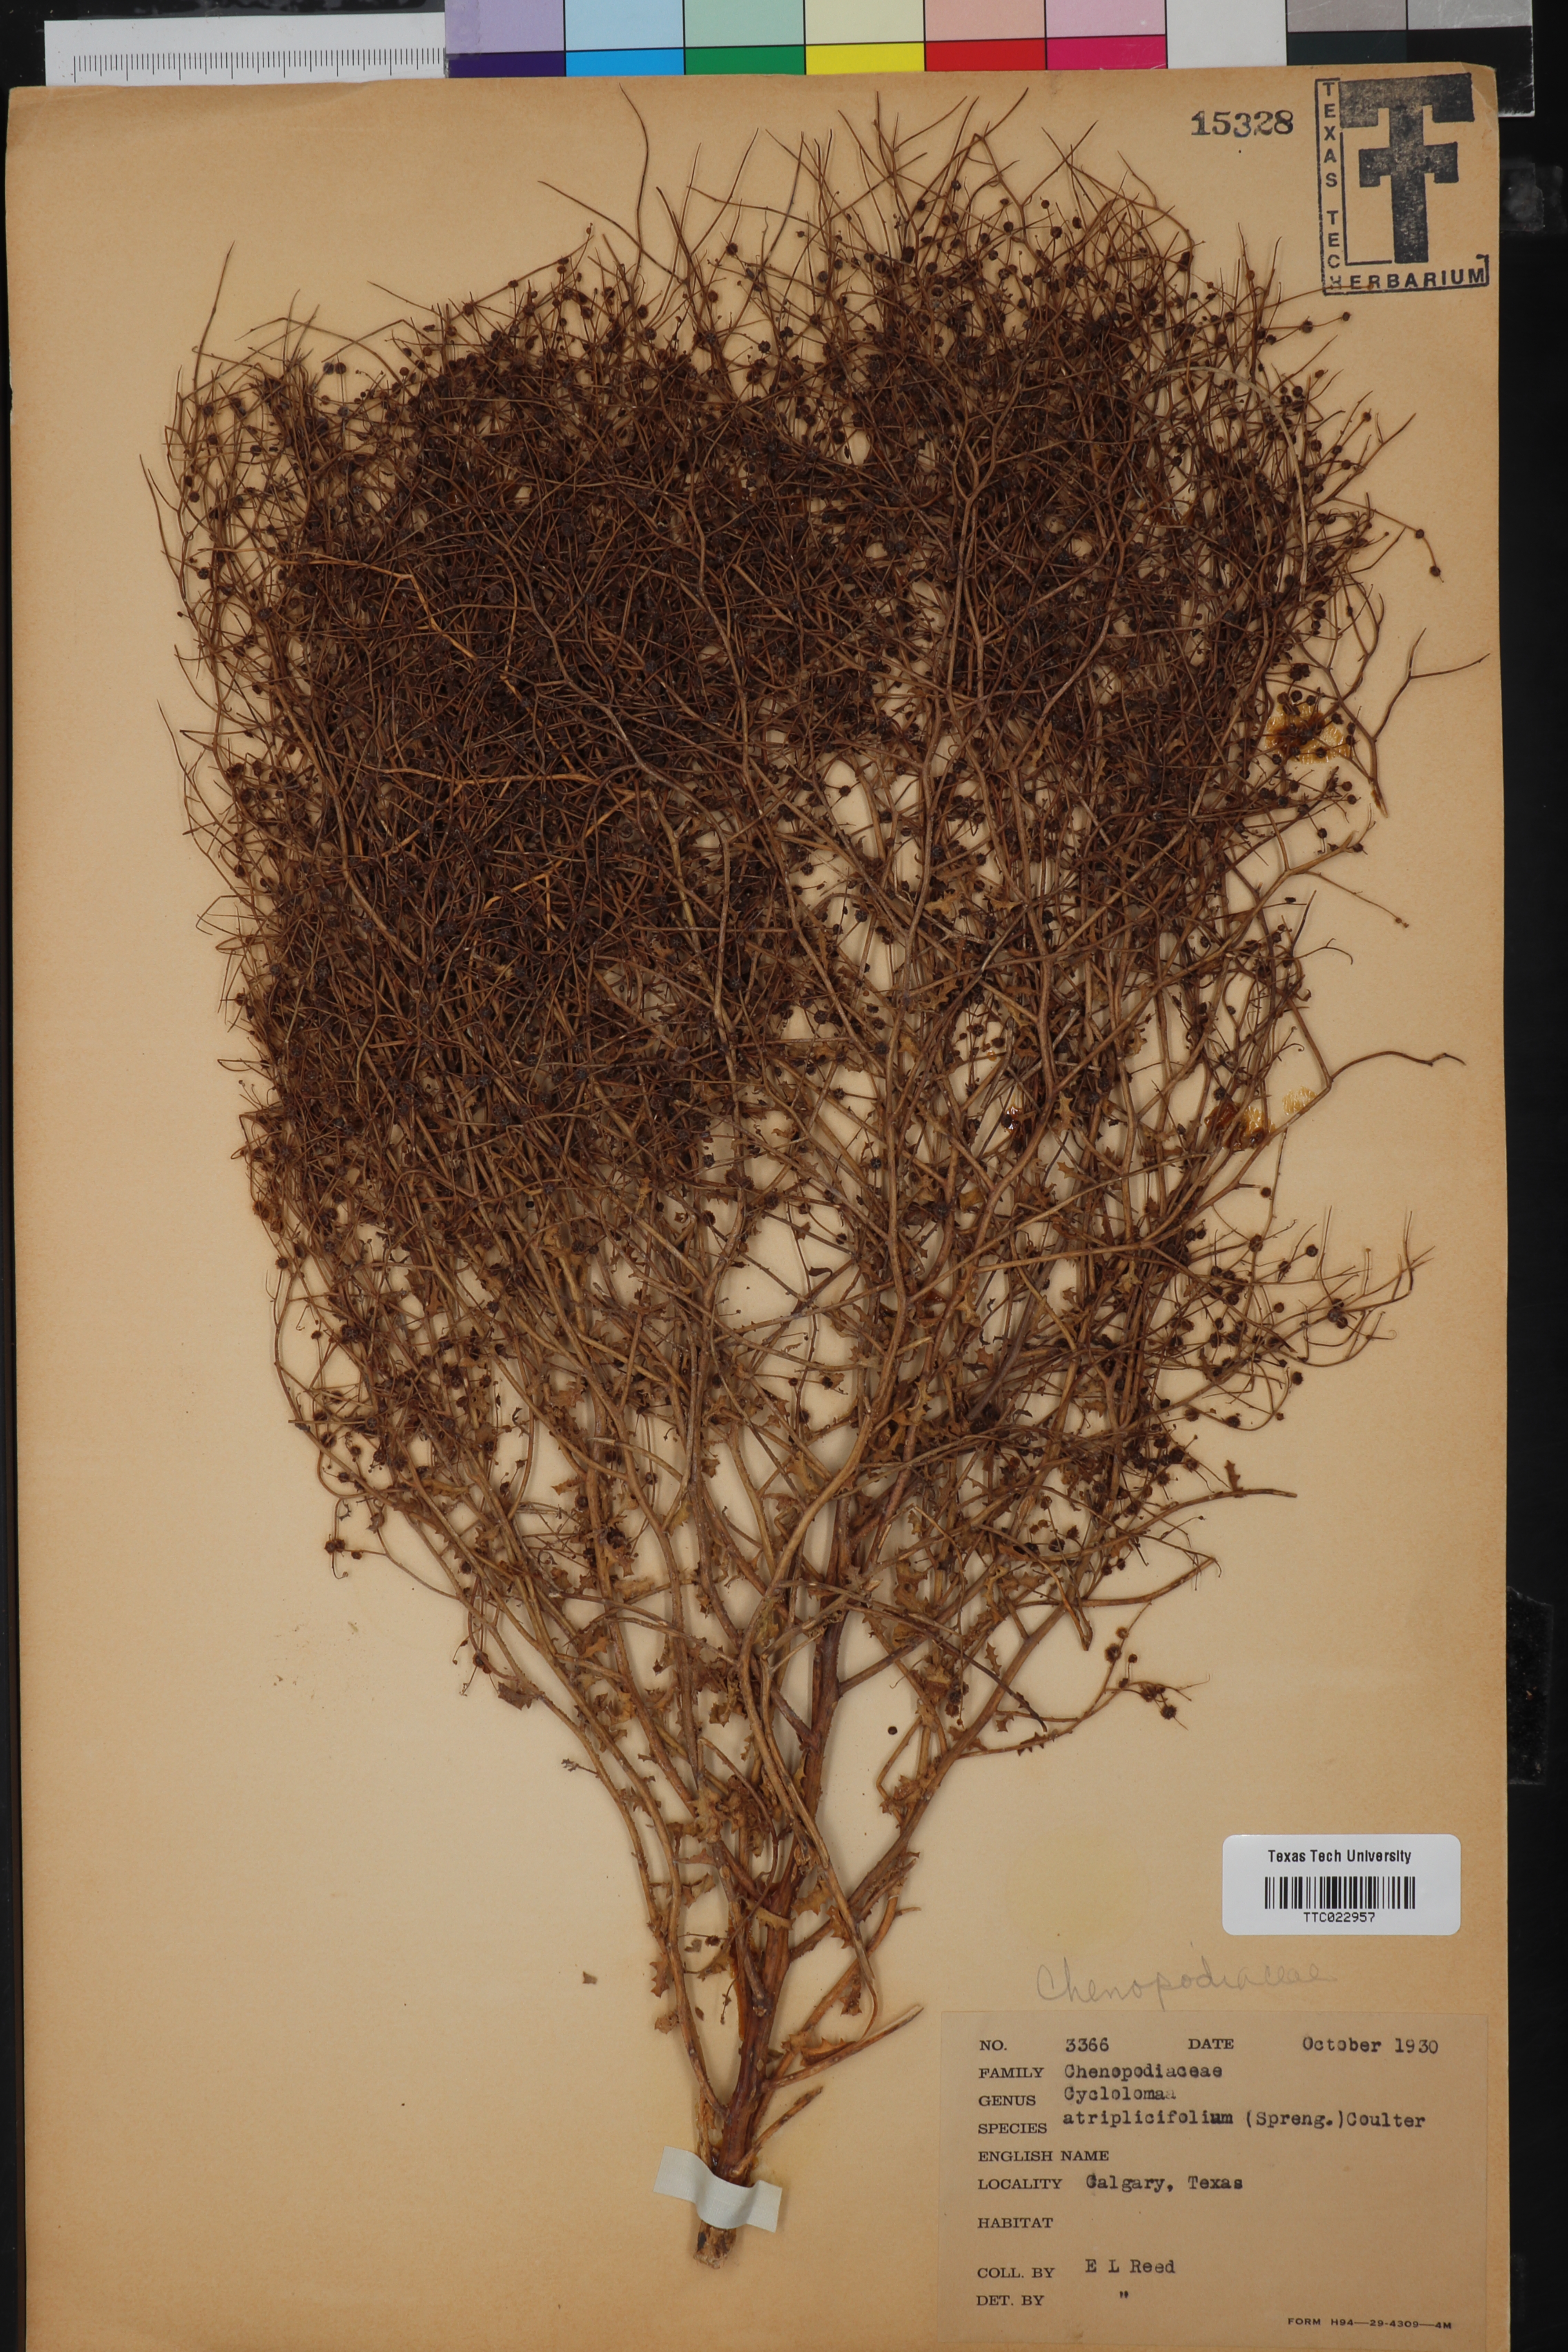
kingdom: Plantae
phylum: Tracheophyta
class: Magnoliopsida
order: Caryophyllales
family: Amaranthaceae
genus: Dysphania
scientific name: Dysphania atriplicifolia
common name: Plains tumbleweed
